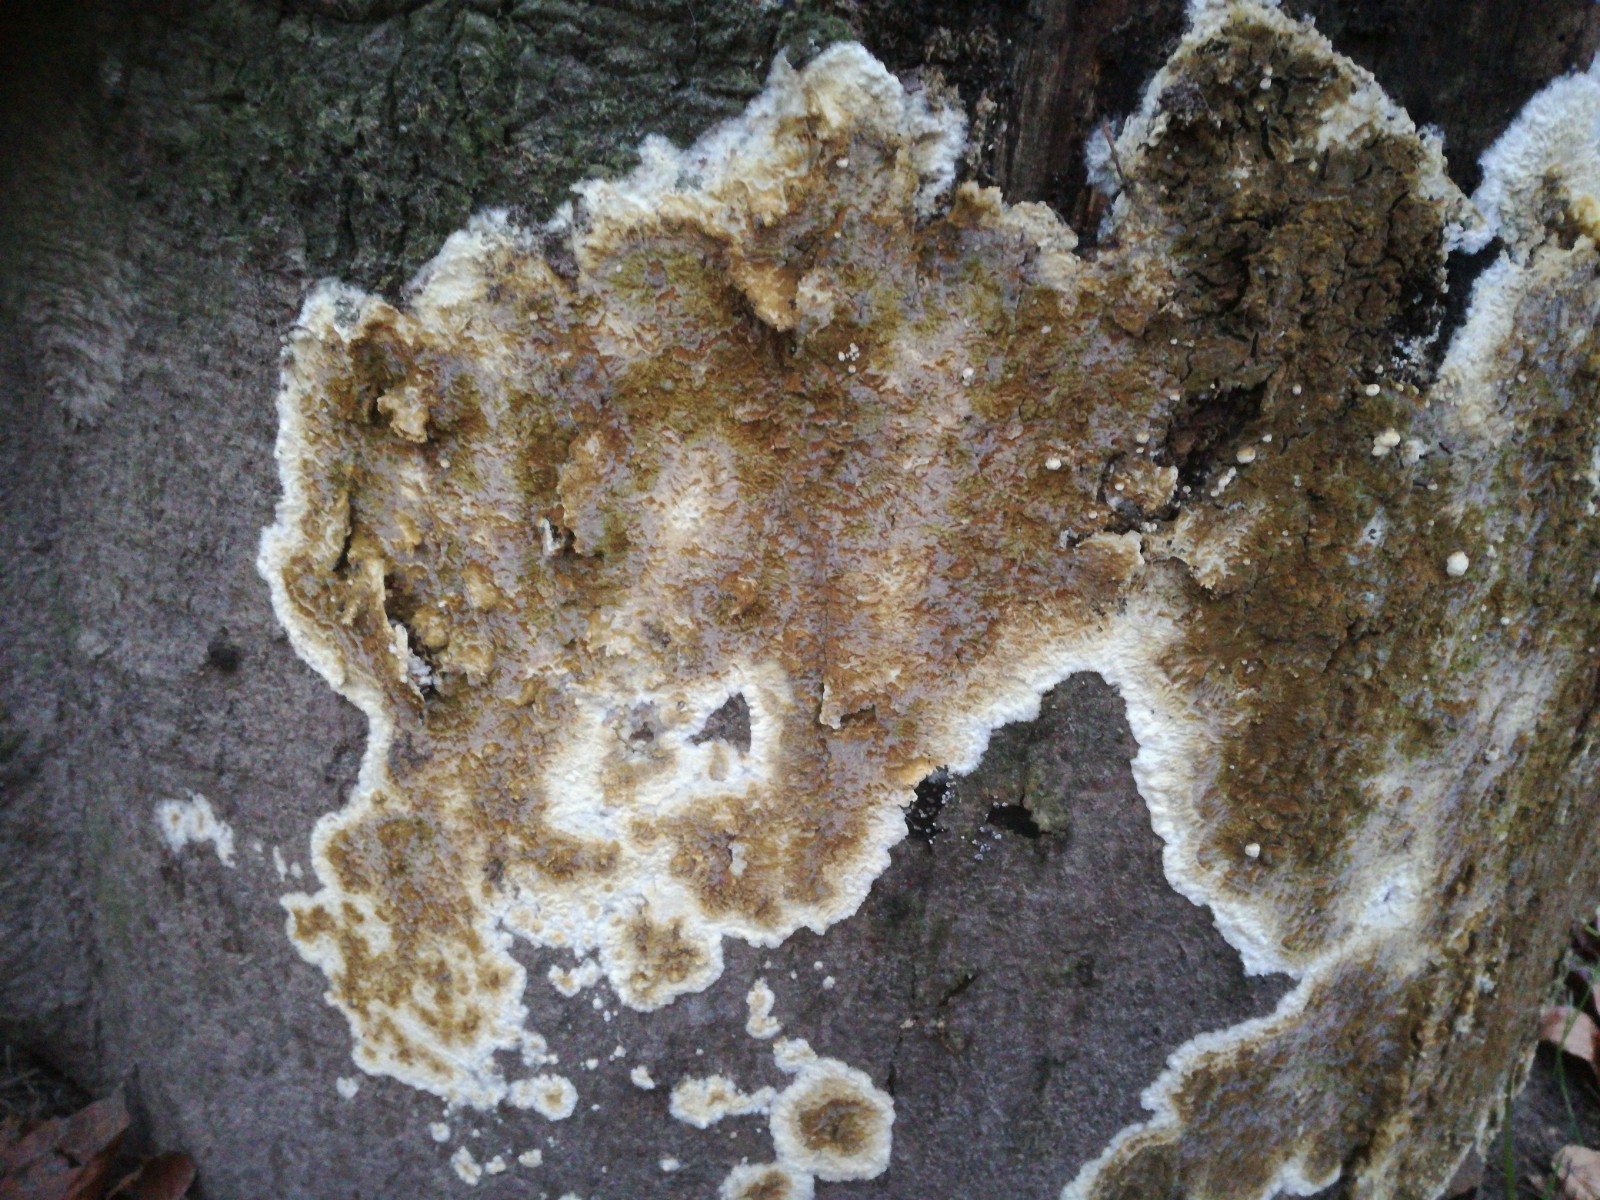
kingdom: Fungi
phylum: Basidiomycota
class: Agaricomycetes
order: Boletales
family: Coniophoraceae
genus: Coniophora
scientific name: Coniophora puteana
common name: gul tømmersvamp
